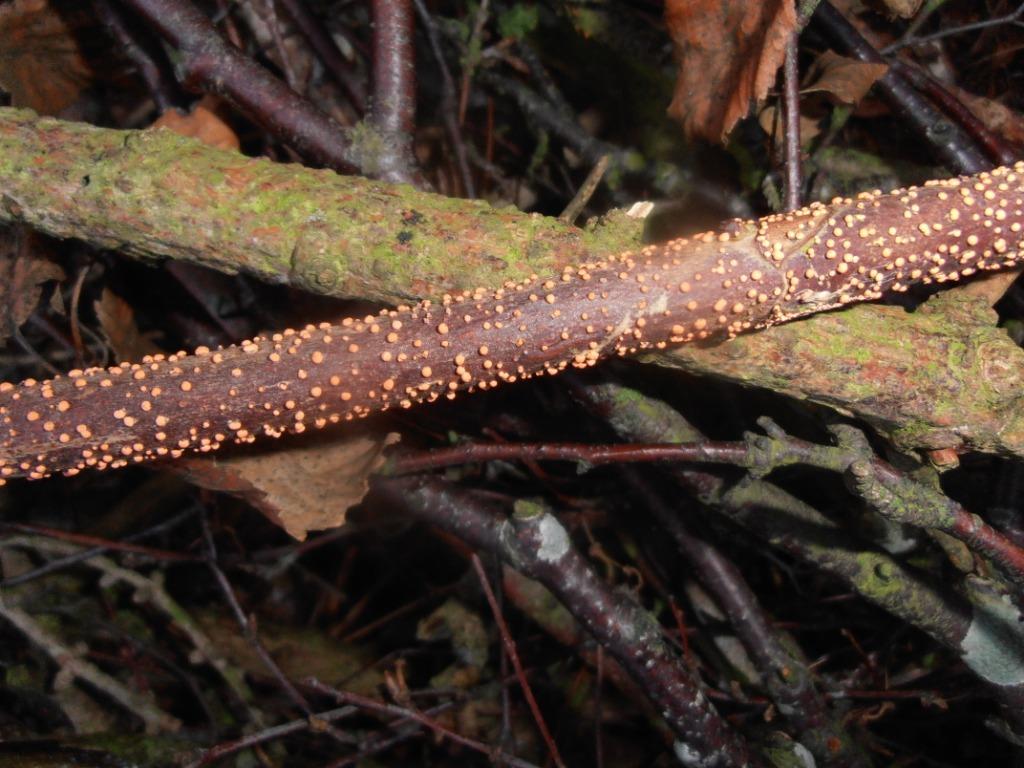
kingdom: Fungi
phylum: Ascomycota
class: Sordariomycetes
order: Hypocreales
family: Nectriaceae
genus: Nectria
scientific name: Nectria cinnabarina
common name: almindelig cinnobersvamp
